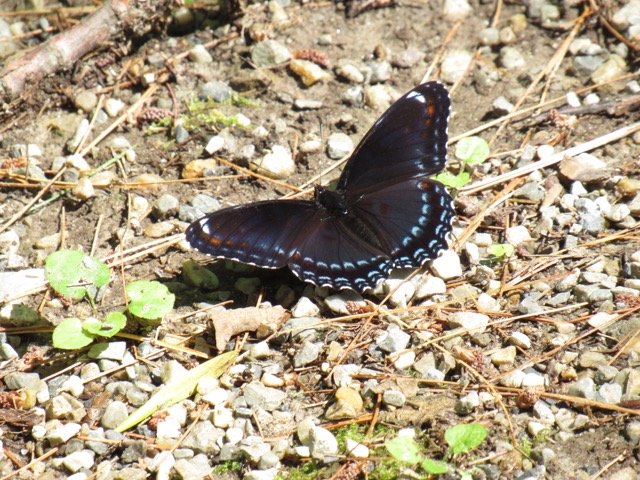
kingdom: Animalia
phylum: Arthropoda
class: Insecta
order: Lepidoptera
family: Nymphalidae
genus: Limenitis
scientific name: Limenitis
